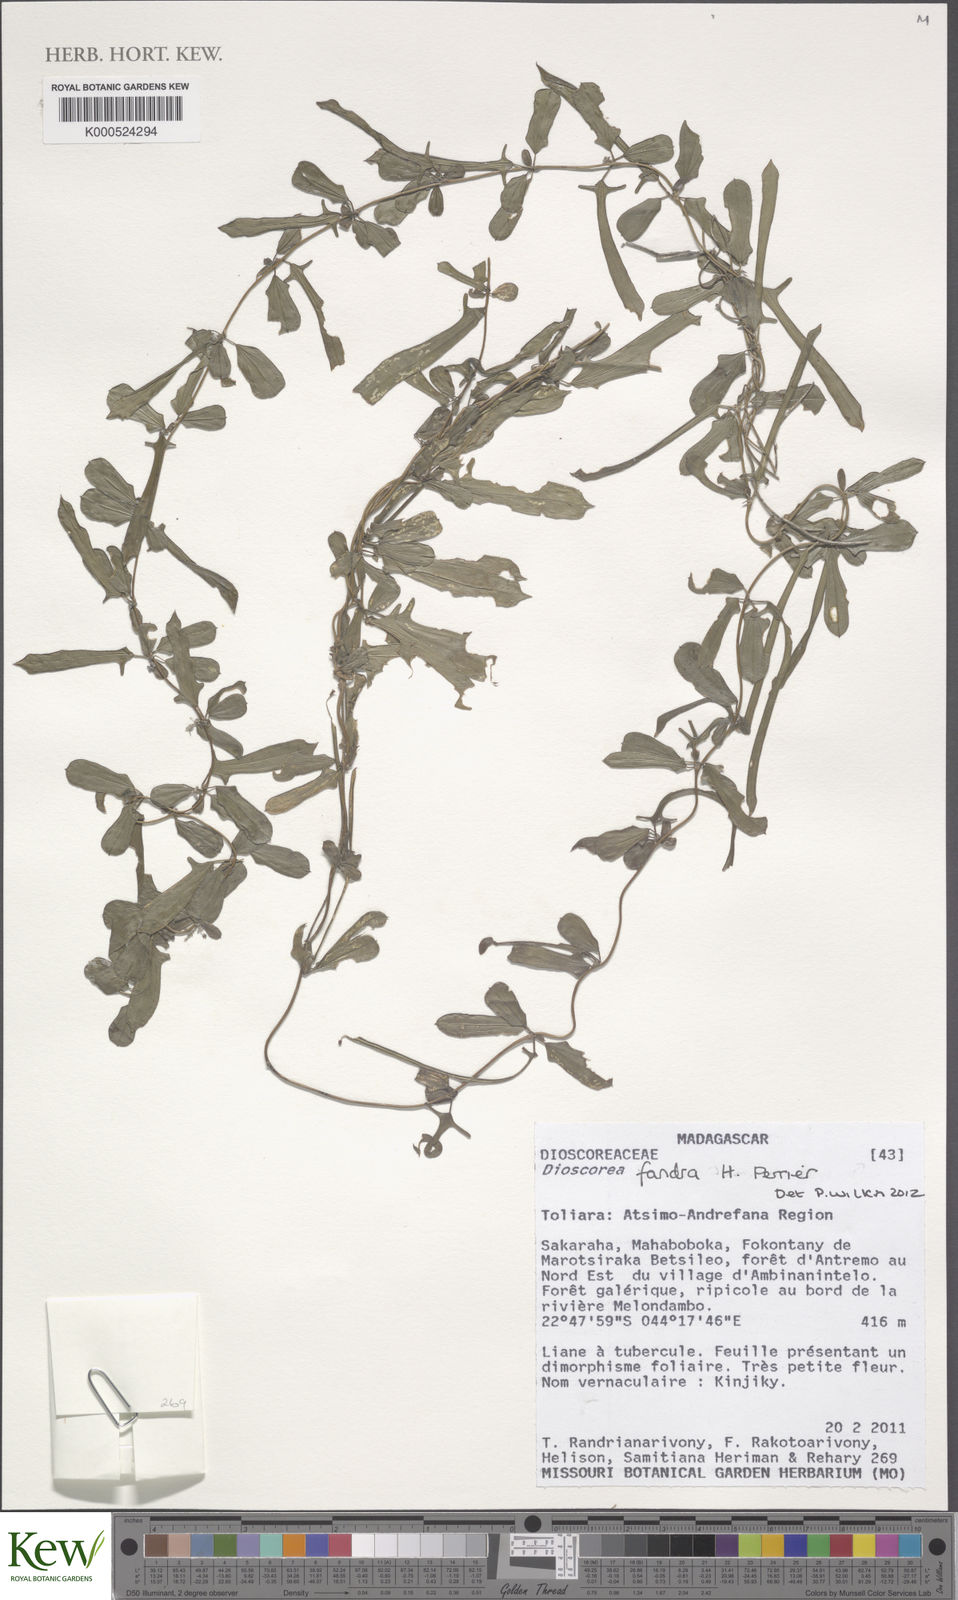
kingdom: Plantae
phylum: Tracheophyta
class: Liliopsida
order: Dioscoreales
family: Dioscoreaceae
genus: Dioscorea
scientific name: Dioscorea fandra
